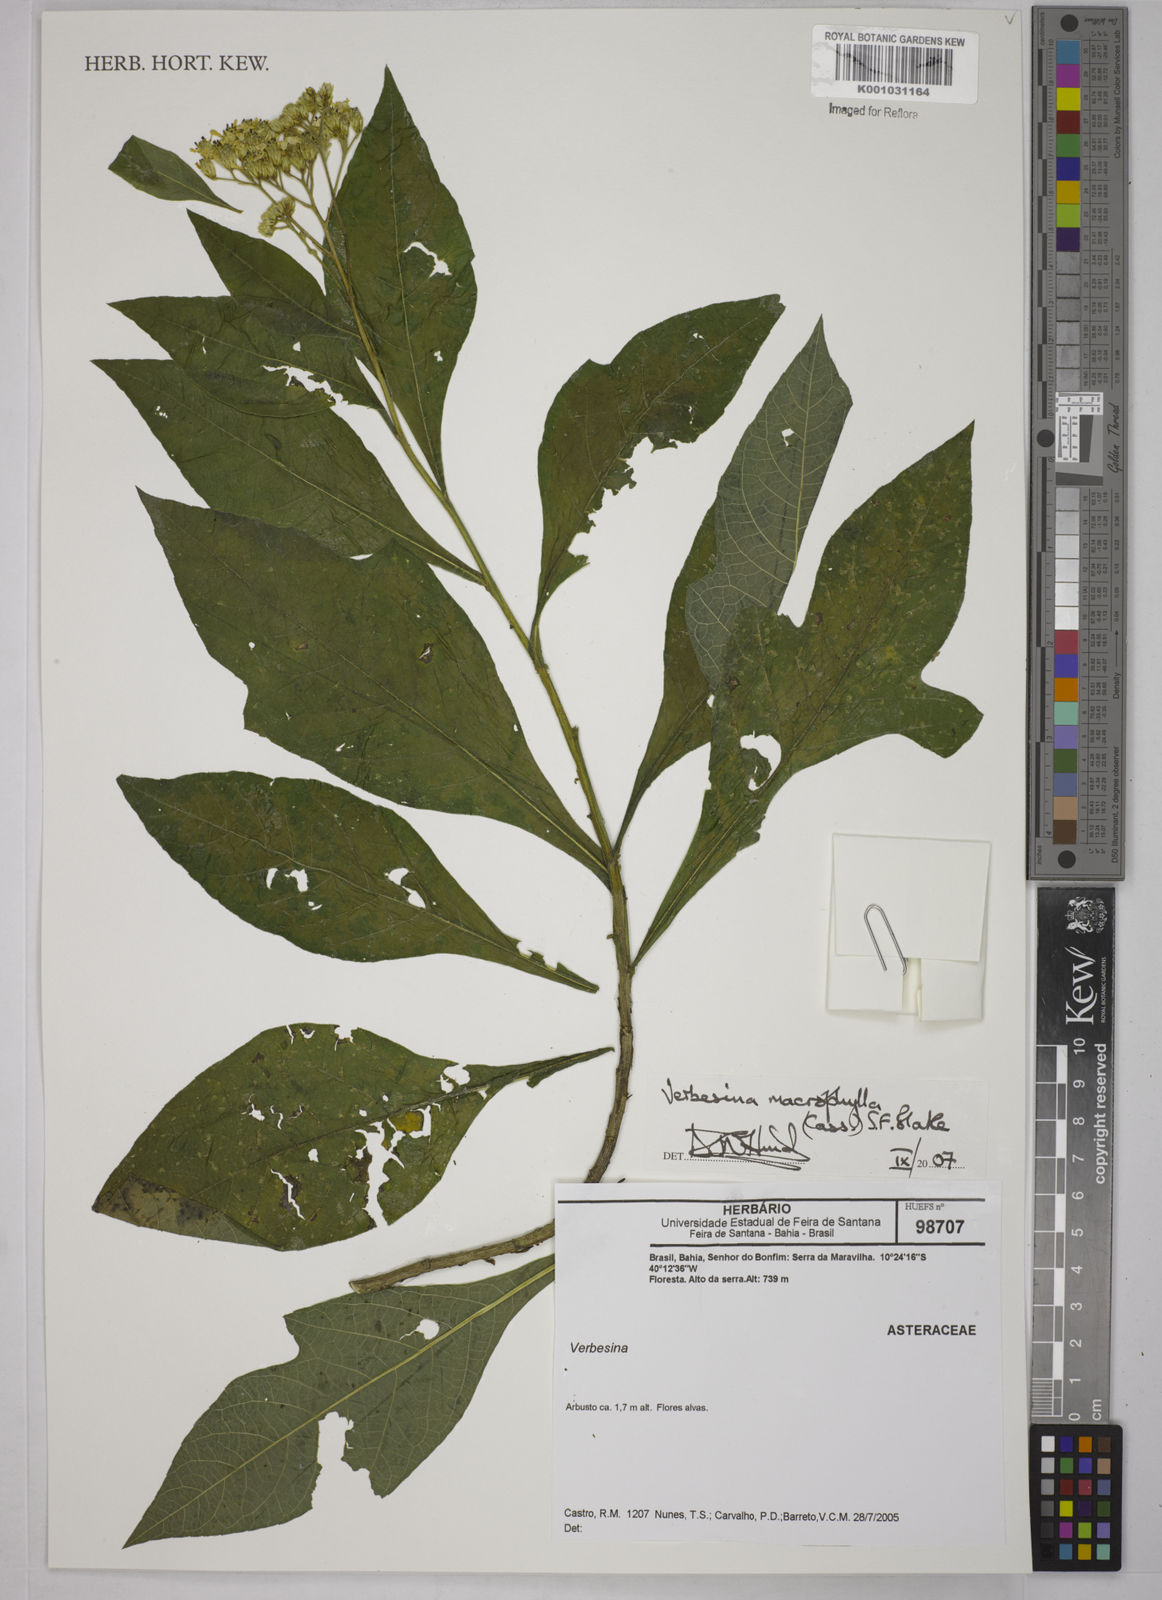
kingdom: Plantae
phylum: Tracheophyta
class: Magnoliopsida
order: Asterales
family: Asteraceae
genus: Verbesina
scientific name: Verbesina macrophylla
